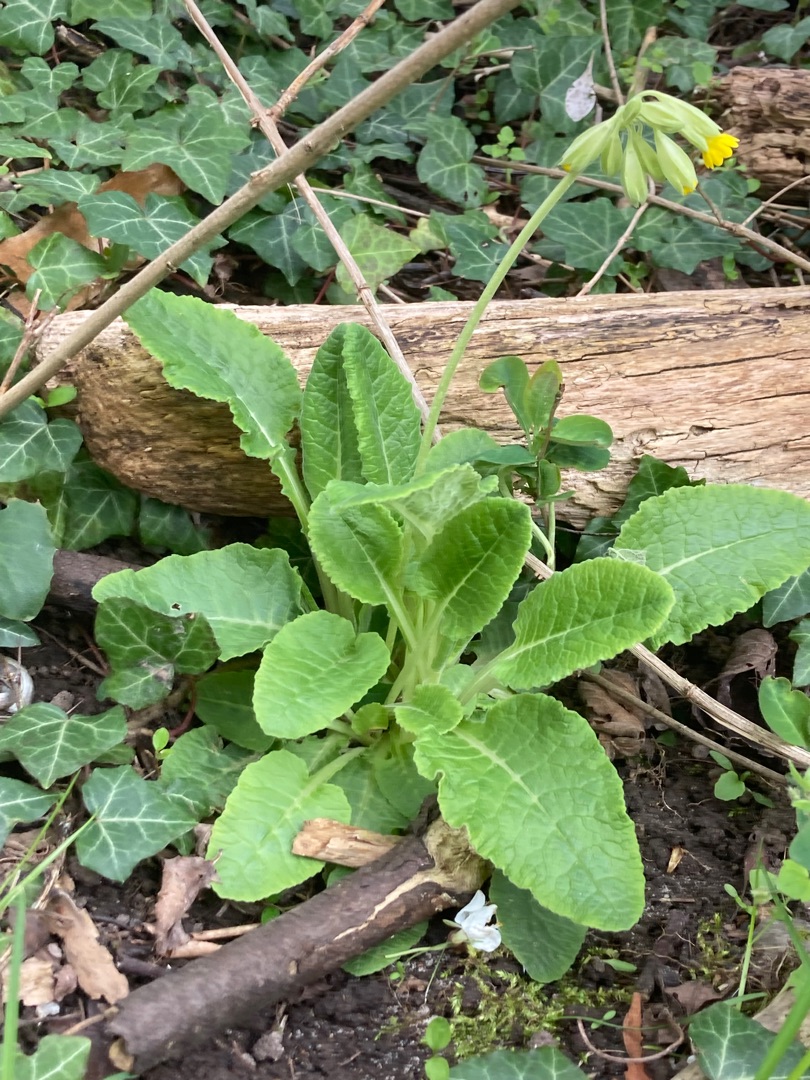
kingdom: Plantae
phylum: Tracheophyta
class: Magnoliopsida
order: Ericales
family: Primulaceae
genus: Primula
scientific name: Primula veris
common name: Hulkravet kodriver
